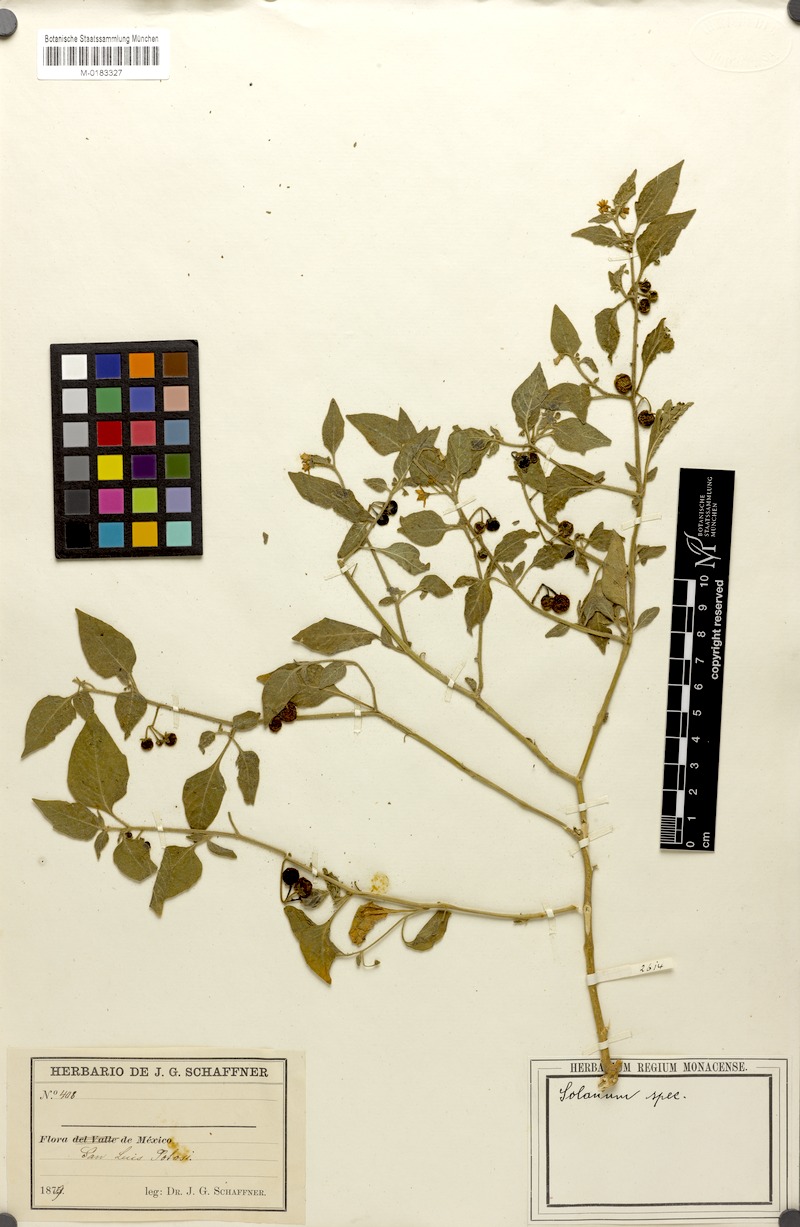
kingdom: Plantae
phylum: Tracheophyta
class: Magnoliopsida
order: Solanales
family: Solanaceae
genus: Solanum
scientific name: Solanum pruinosum
